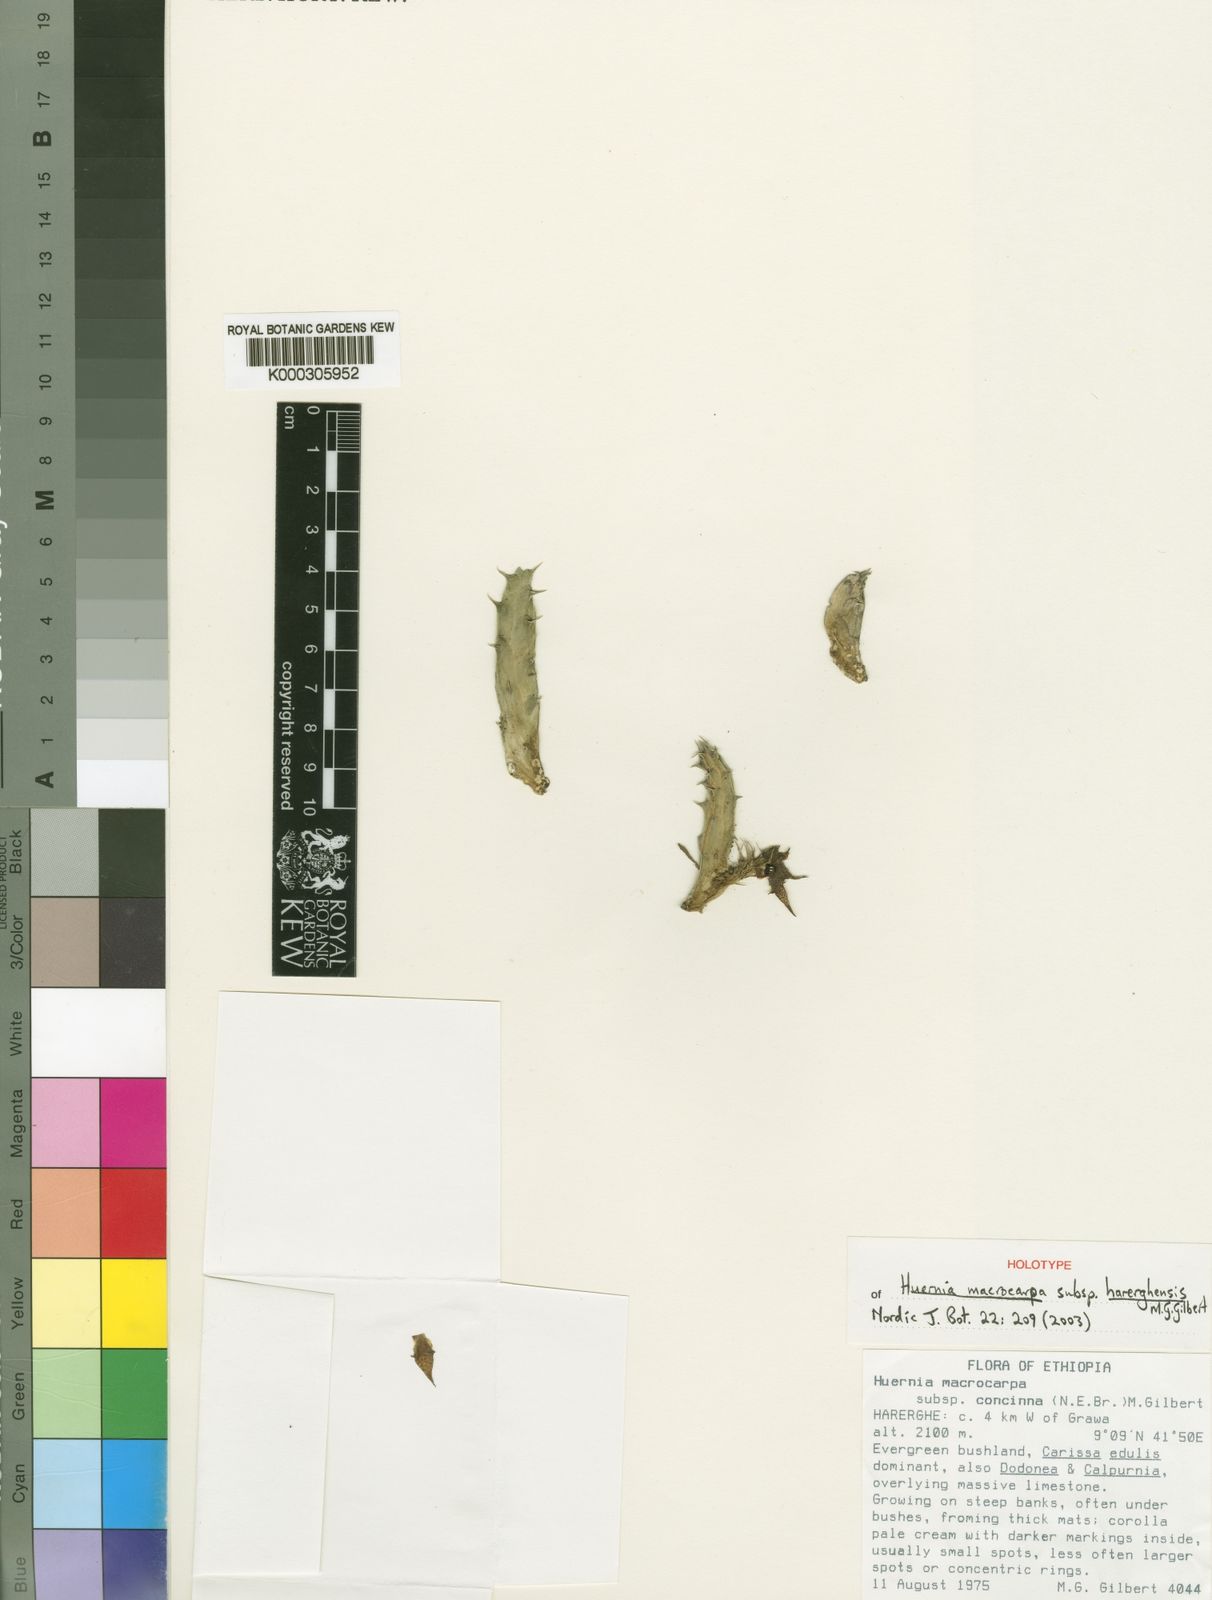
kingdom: Plantae
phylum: Tracheophyta
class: Magnoliopsida
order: Gentianales
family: Apocynaceae
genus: Ceropegia
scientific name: Ceropegia macrocarpa
